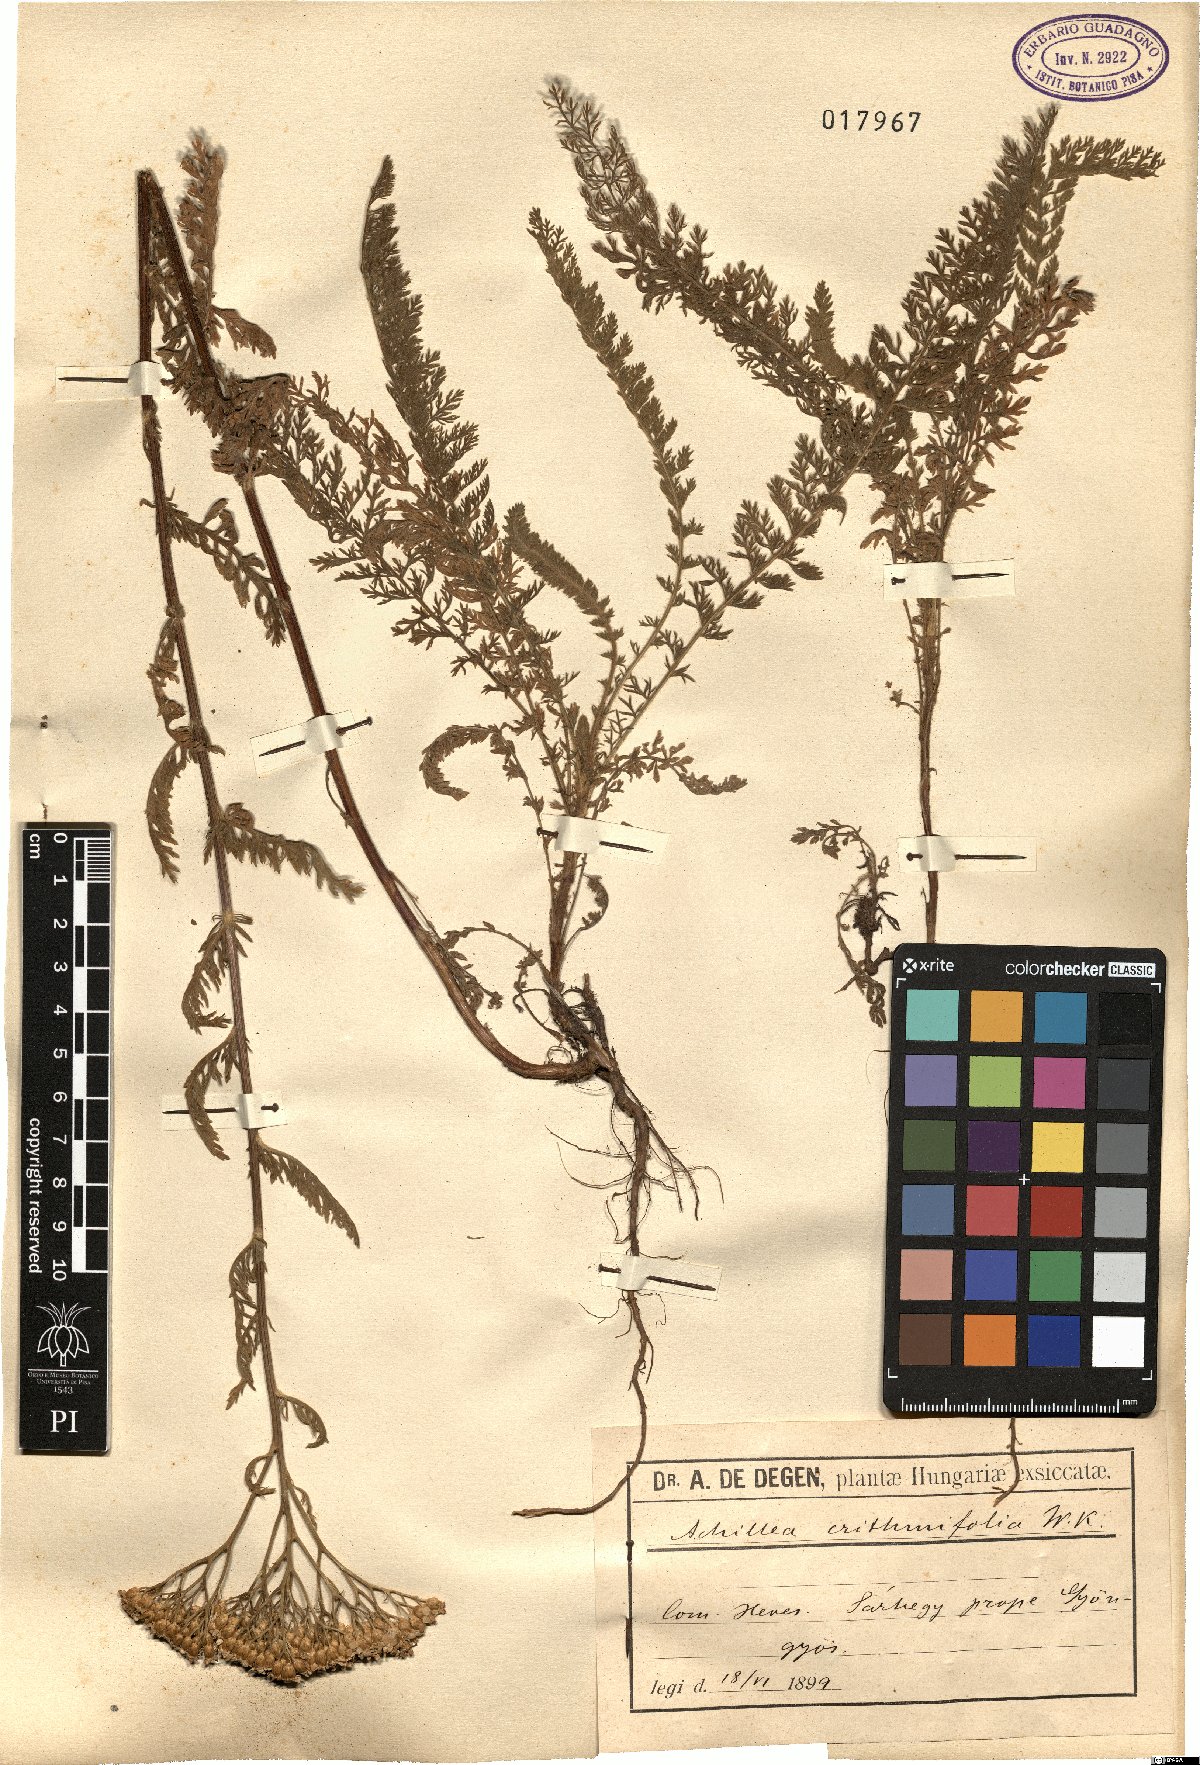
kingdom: Plantae
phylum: Tracheophyta
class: Magnoliopsida
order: Asterales
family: Asteraceae
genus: Achillea
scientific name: Achillea crithmifolia
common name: Yarrow
